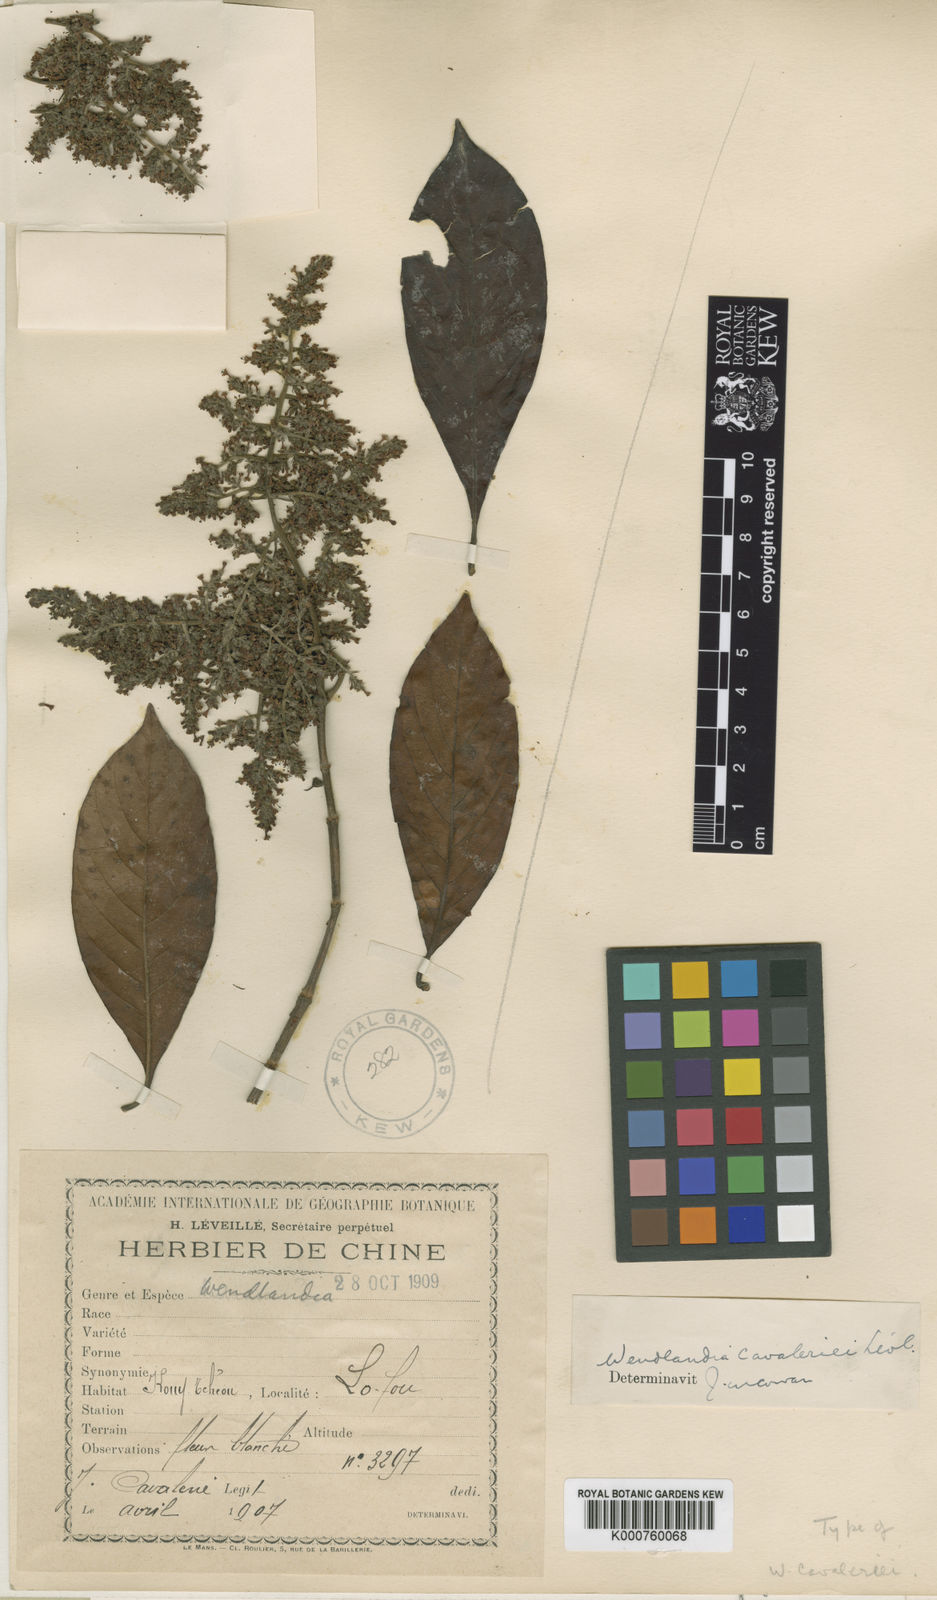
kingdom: Plantae
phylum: Tracheophyta
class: Magnoliopsida
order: Gentianales
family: Rubiaceae
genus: Wendlandia
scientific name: Wendlandia
